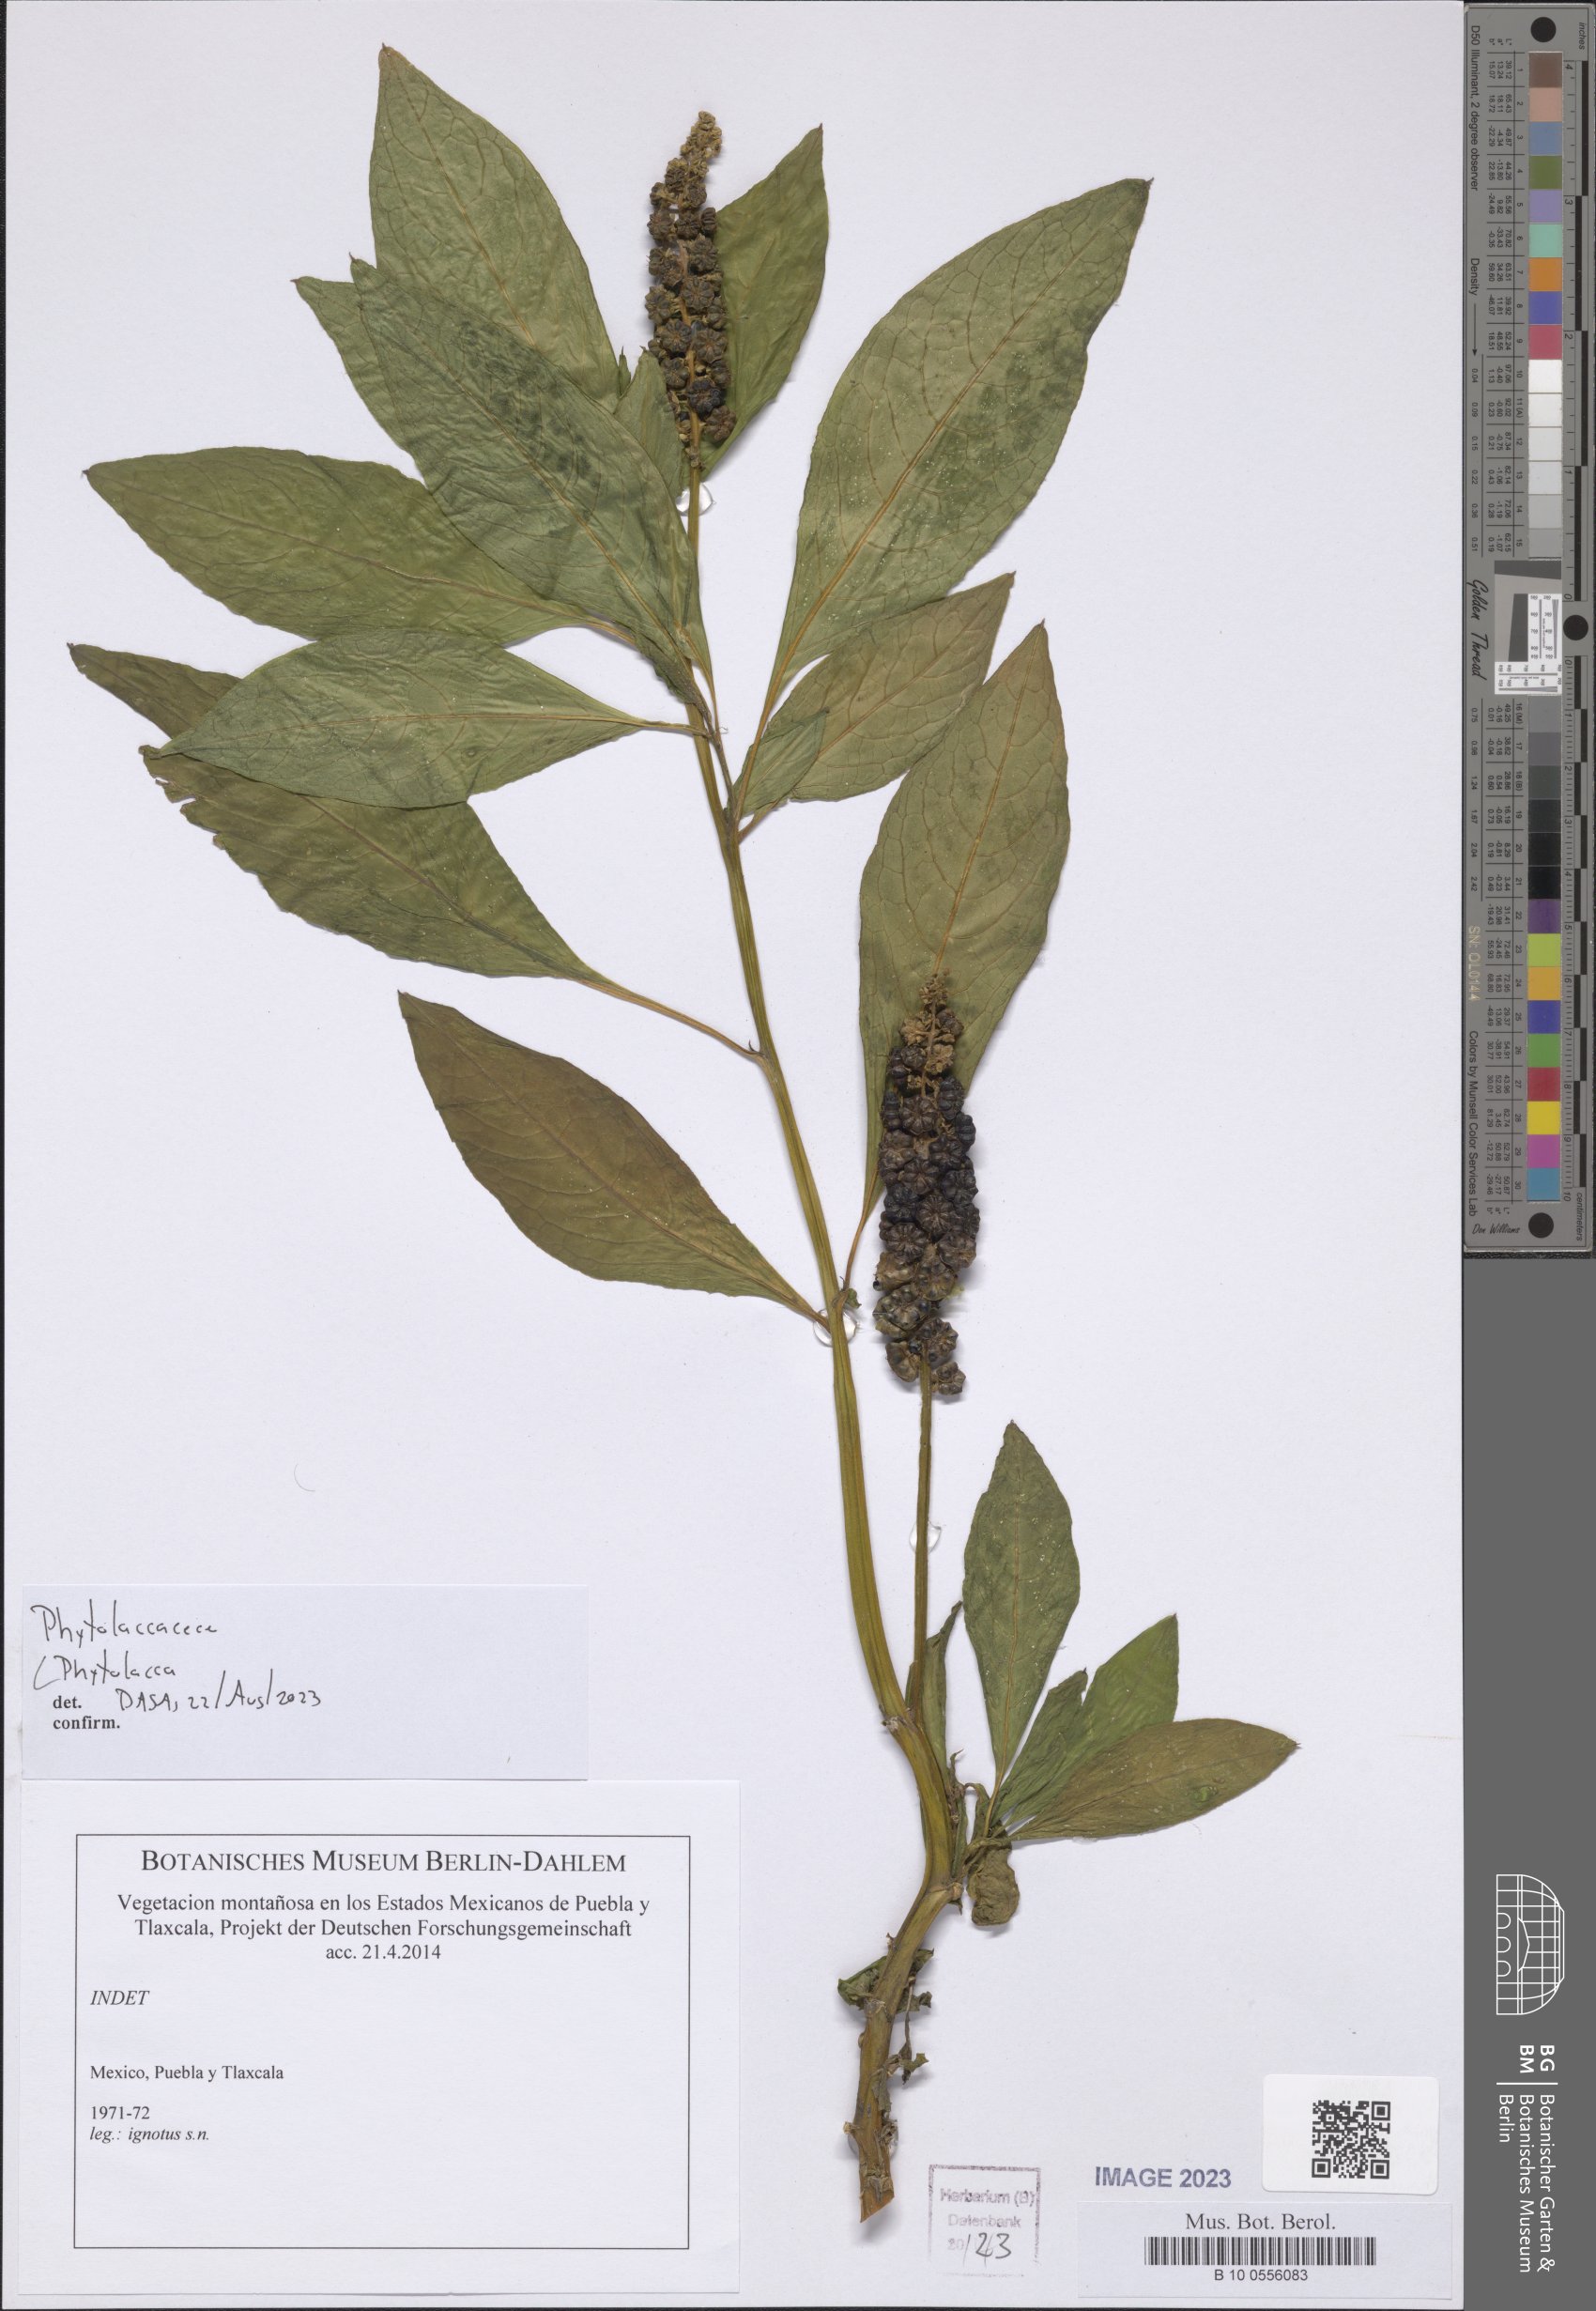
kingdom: Plantae
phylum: Tracheophyta
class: Magnoliopsida
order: Caryophyllales
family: Phytolaccaceae
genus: Phytolacca
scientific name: Phytolacca
